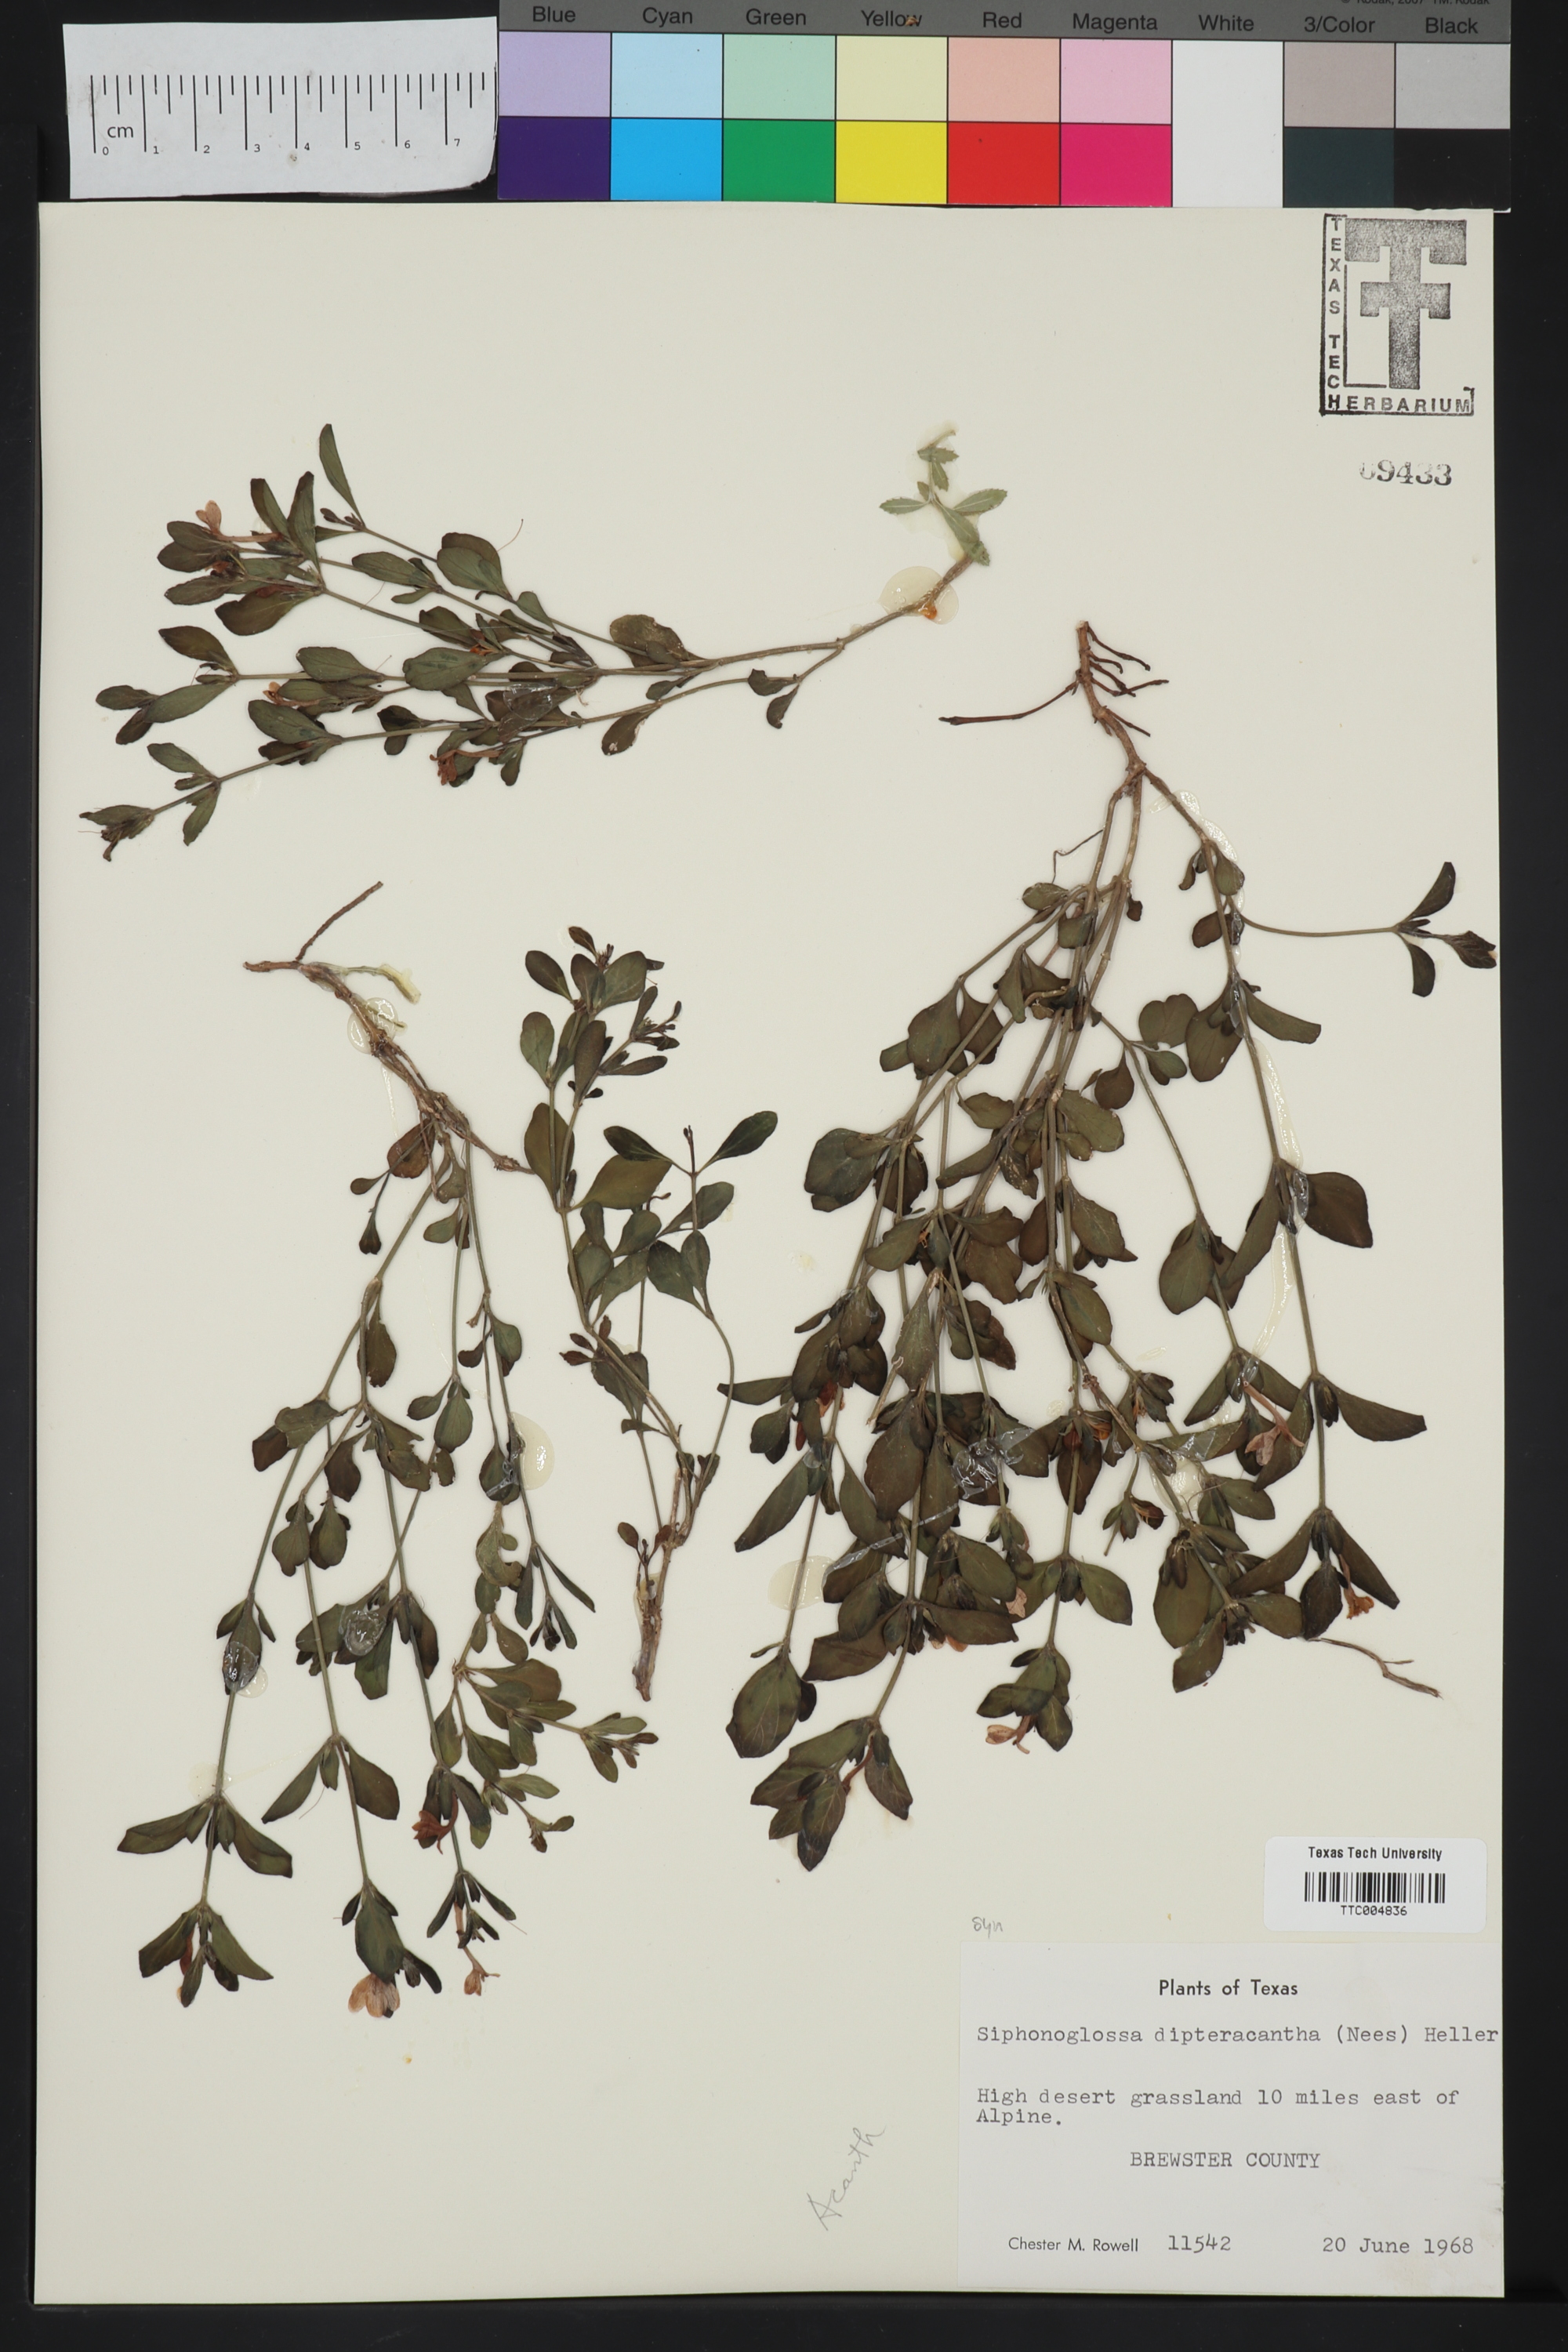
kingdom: Plantae
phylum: Tracheophyta
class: Magnoliopsida
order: Lamiales
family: Acanthaceae
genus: Justicia
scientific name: Justicia pilosella
